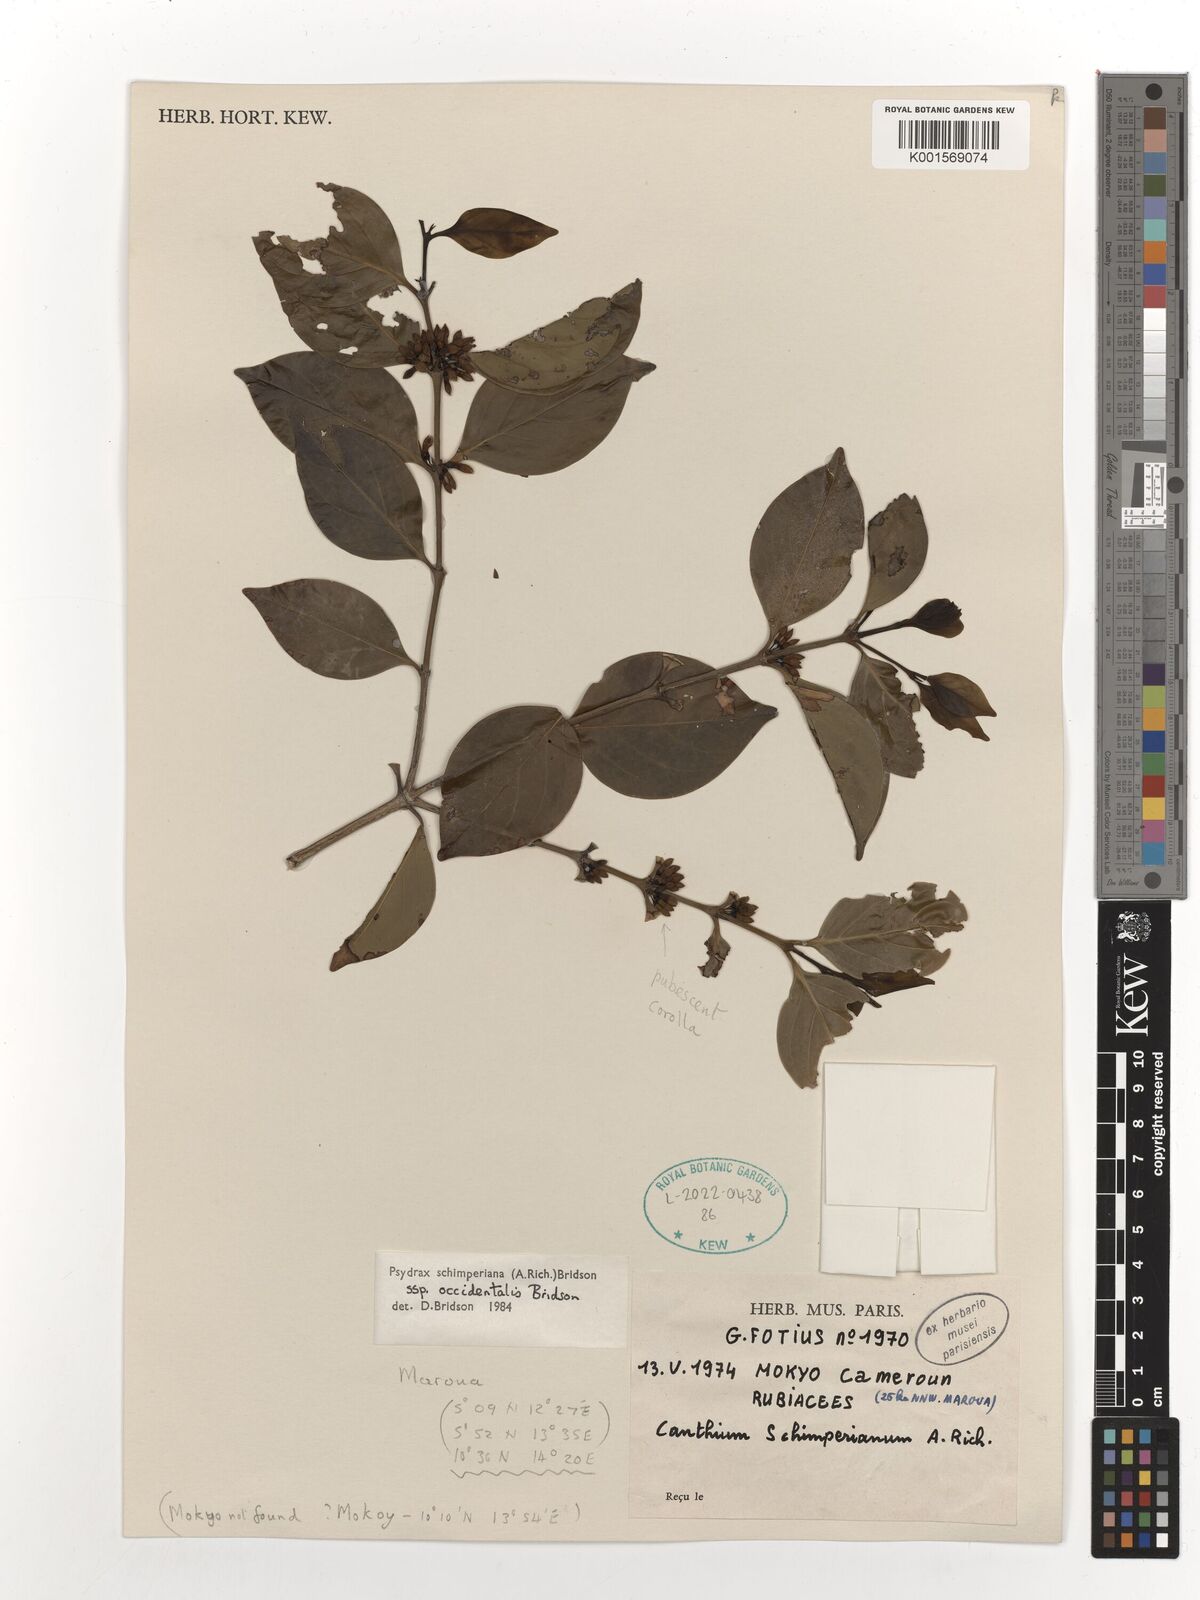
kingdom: Plantae
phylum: Tracheophyta
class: Magnoliopsida
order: Gentianales
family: Rubiaceae
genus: Psydrax
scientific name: Psydrax schimperianus
